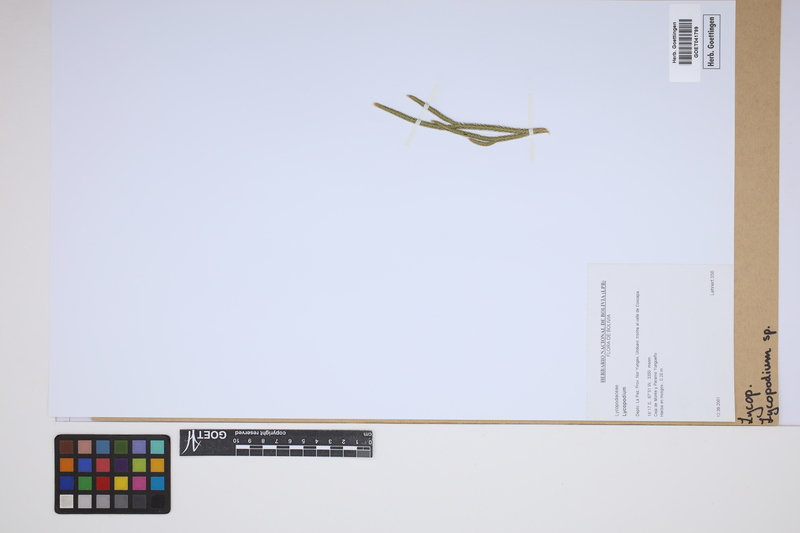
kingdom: Plantae
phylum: Tracheophyta
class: Lycopodiopsida
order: Lycopodiales
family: Lycopodiaceae
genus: Lycopodium
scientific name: Lycopodium
